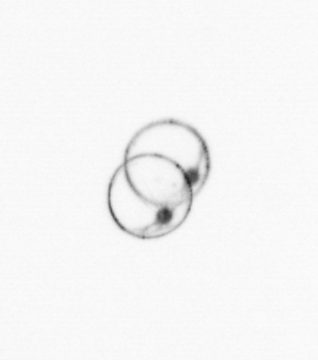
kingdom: Chromista
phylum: Myzozoa
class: Dinophyceae
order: Noctilucales
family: Noctilucaceae
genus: Noctiluca
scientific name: Noctiluca scintillans
